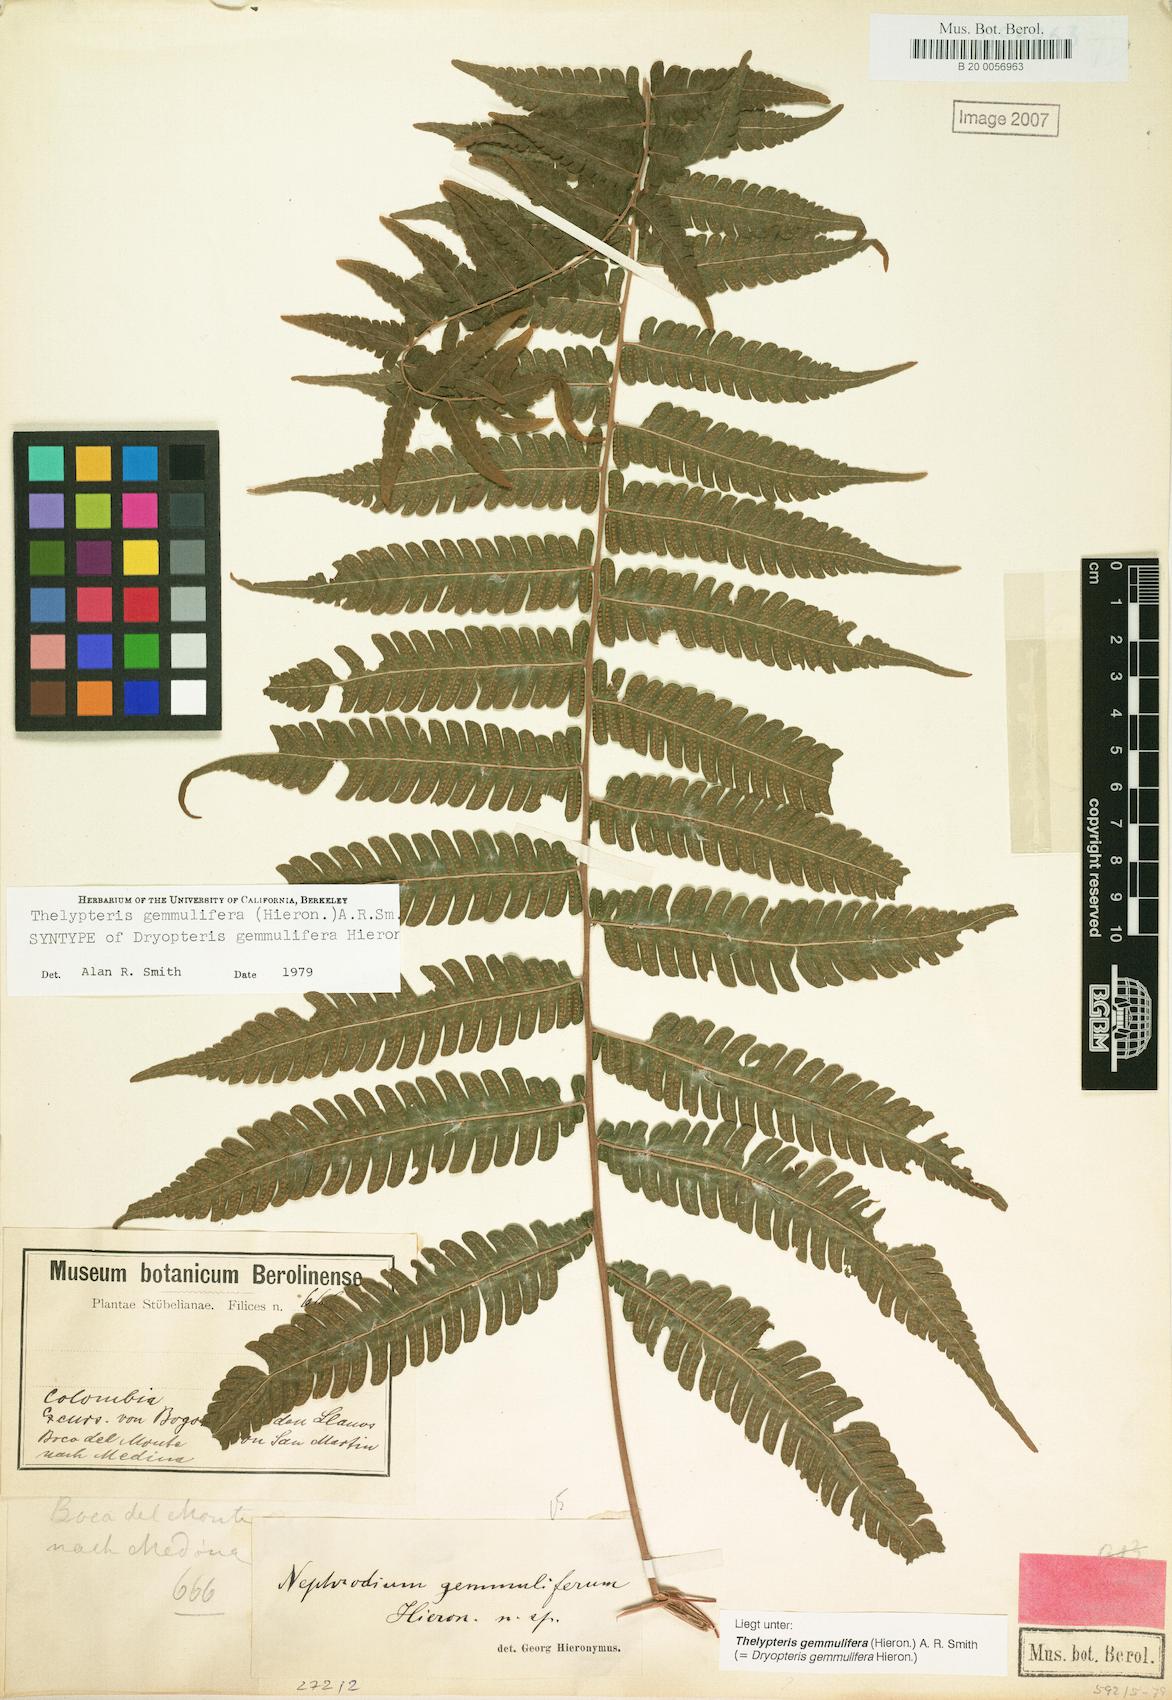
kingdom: Plantae
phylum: Tracheophyta
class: Polypodiopsida
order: Polypodiales
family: Thelypteridaceae
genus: Goniopteris
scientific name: Goniopteris gemmulifera
